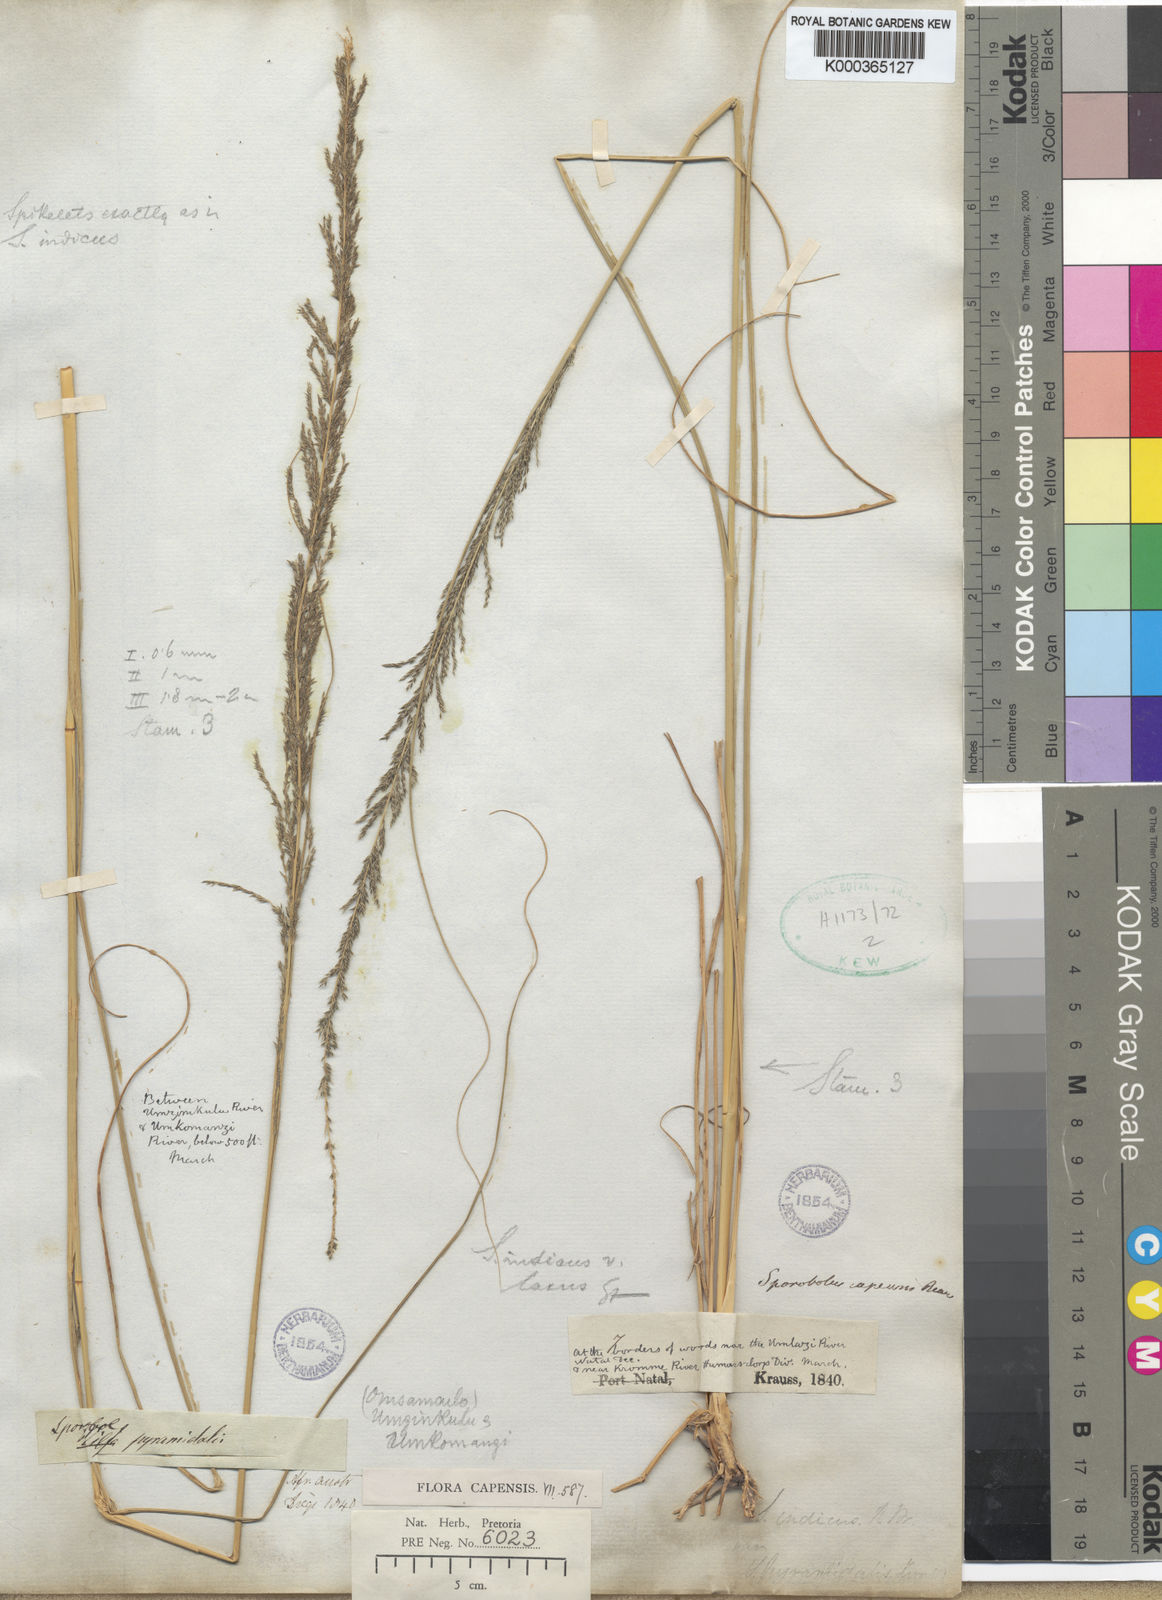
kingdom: Plantae
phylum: Tracheophyta
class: Liliopsida
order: Poales
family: Poaceae
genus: Sporobolus
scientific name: Sporobolus natalensis
